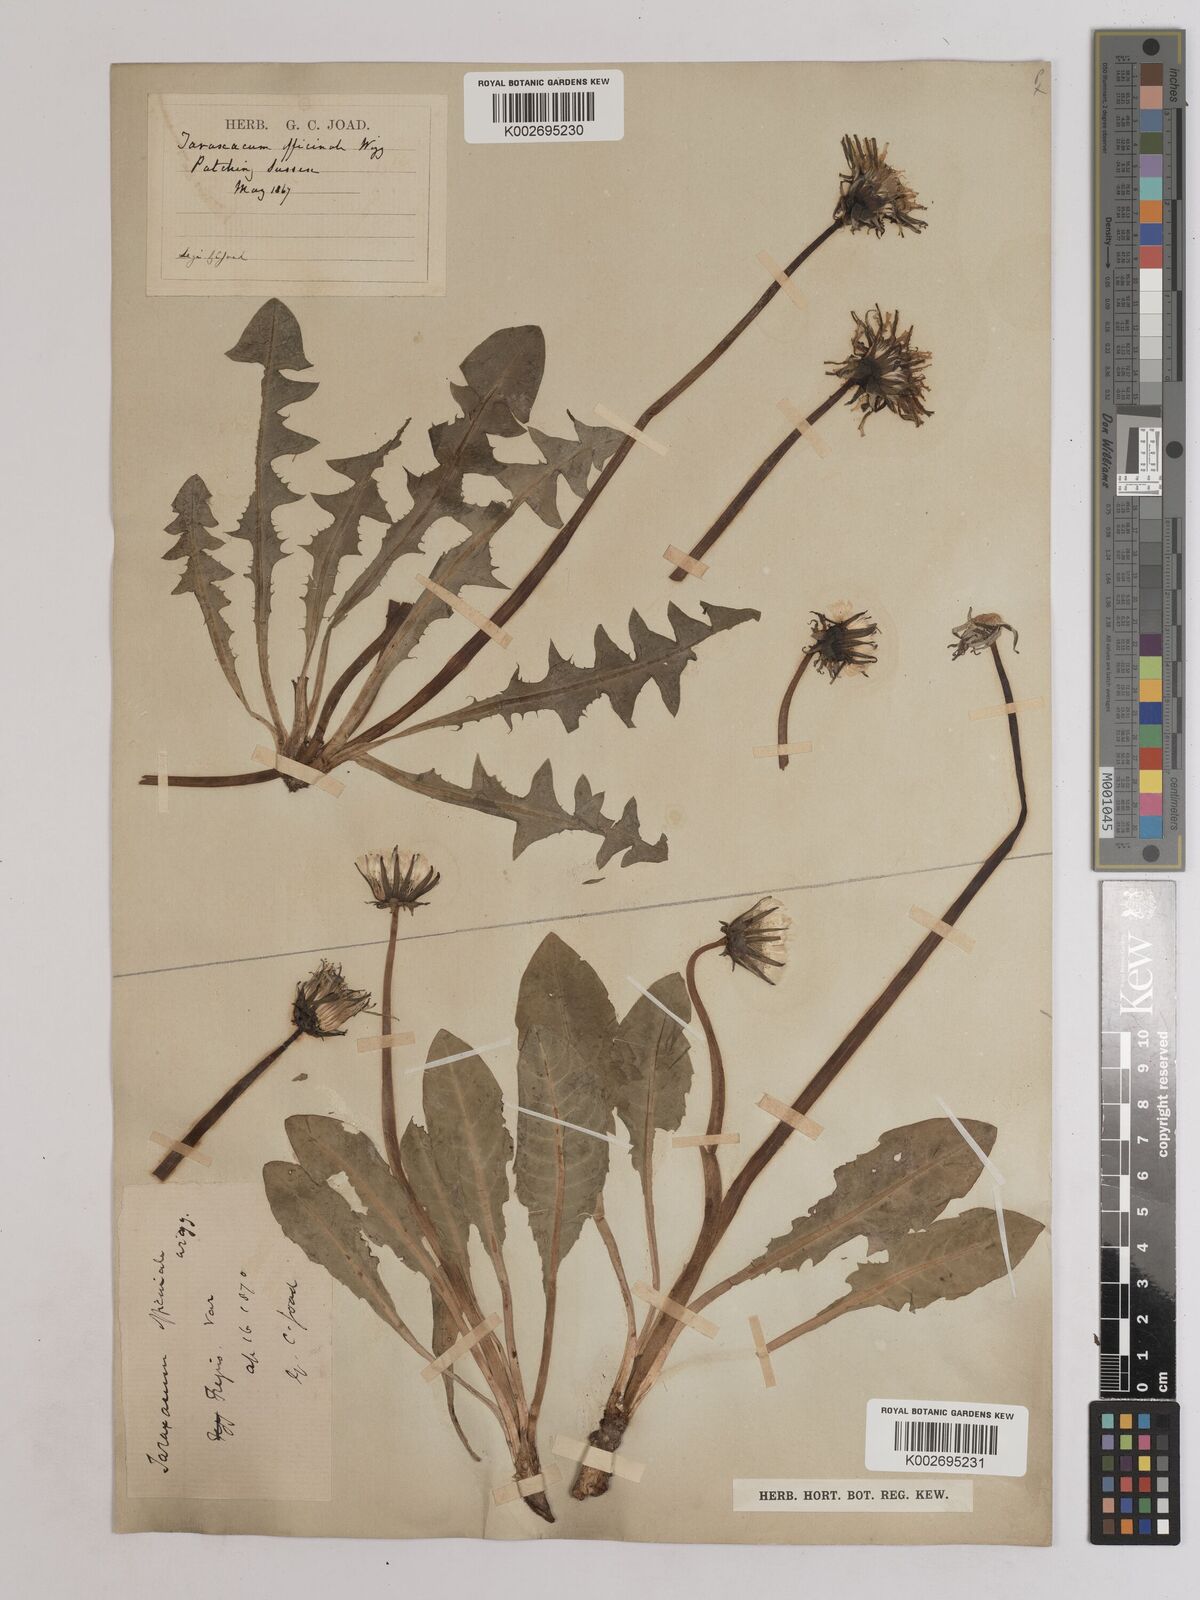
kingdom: Plantae
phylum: Tracheophyta
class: Magnoliopsida
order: Asterales
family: Asteraceae
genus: Taraxacum
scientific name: Taraxacum officinale
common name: Common dandelion
